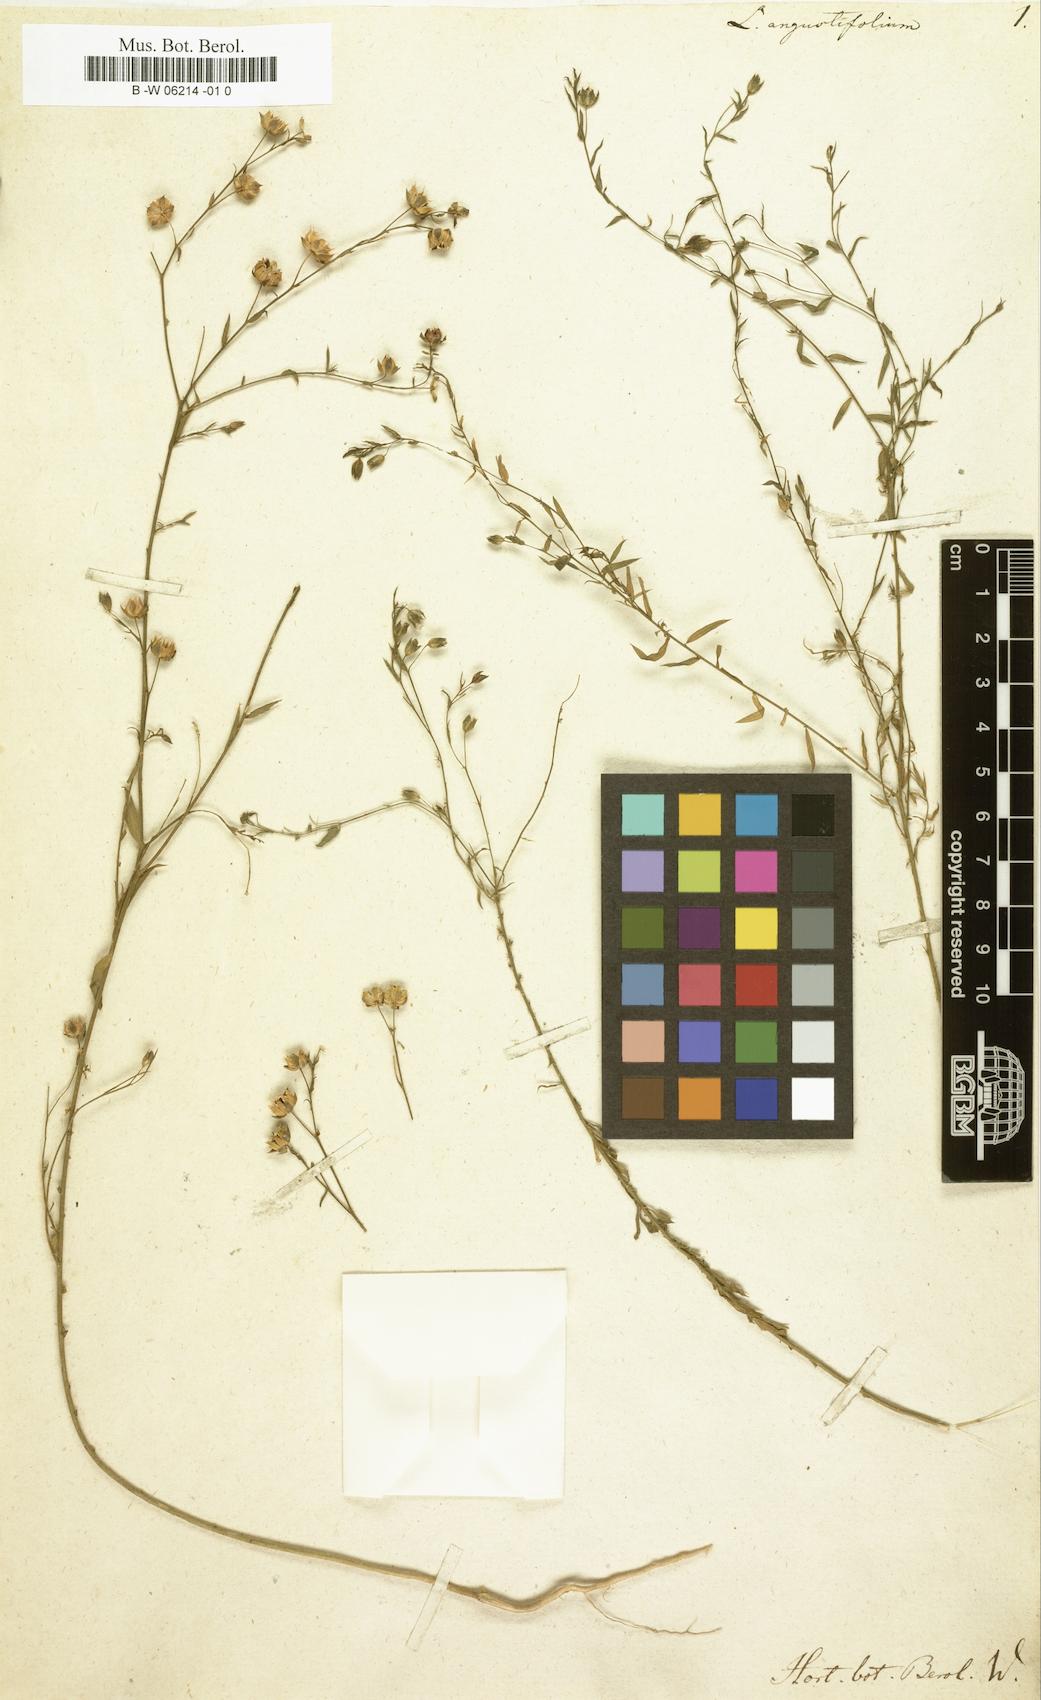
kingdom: Plantae
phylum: Tracheophyta
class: Magnoliopsida
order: Malpighiales
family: Linaceae
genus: Linum
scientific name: Linum
